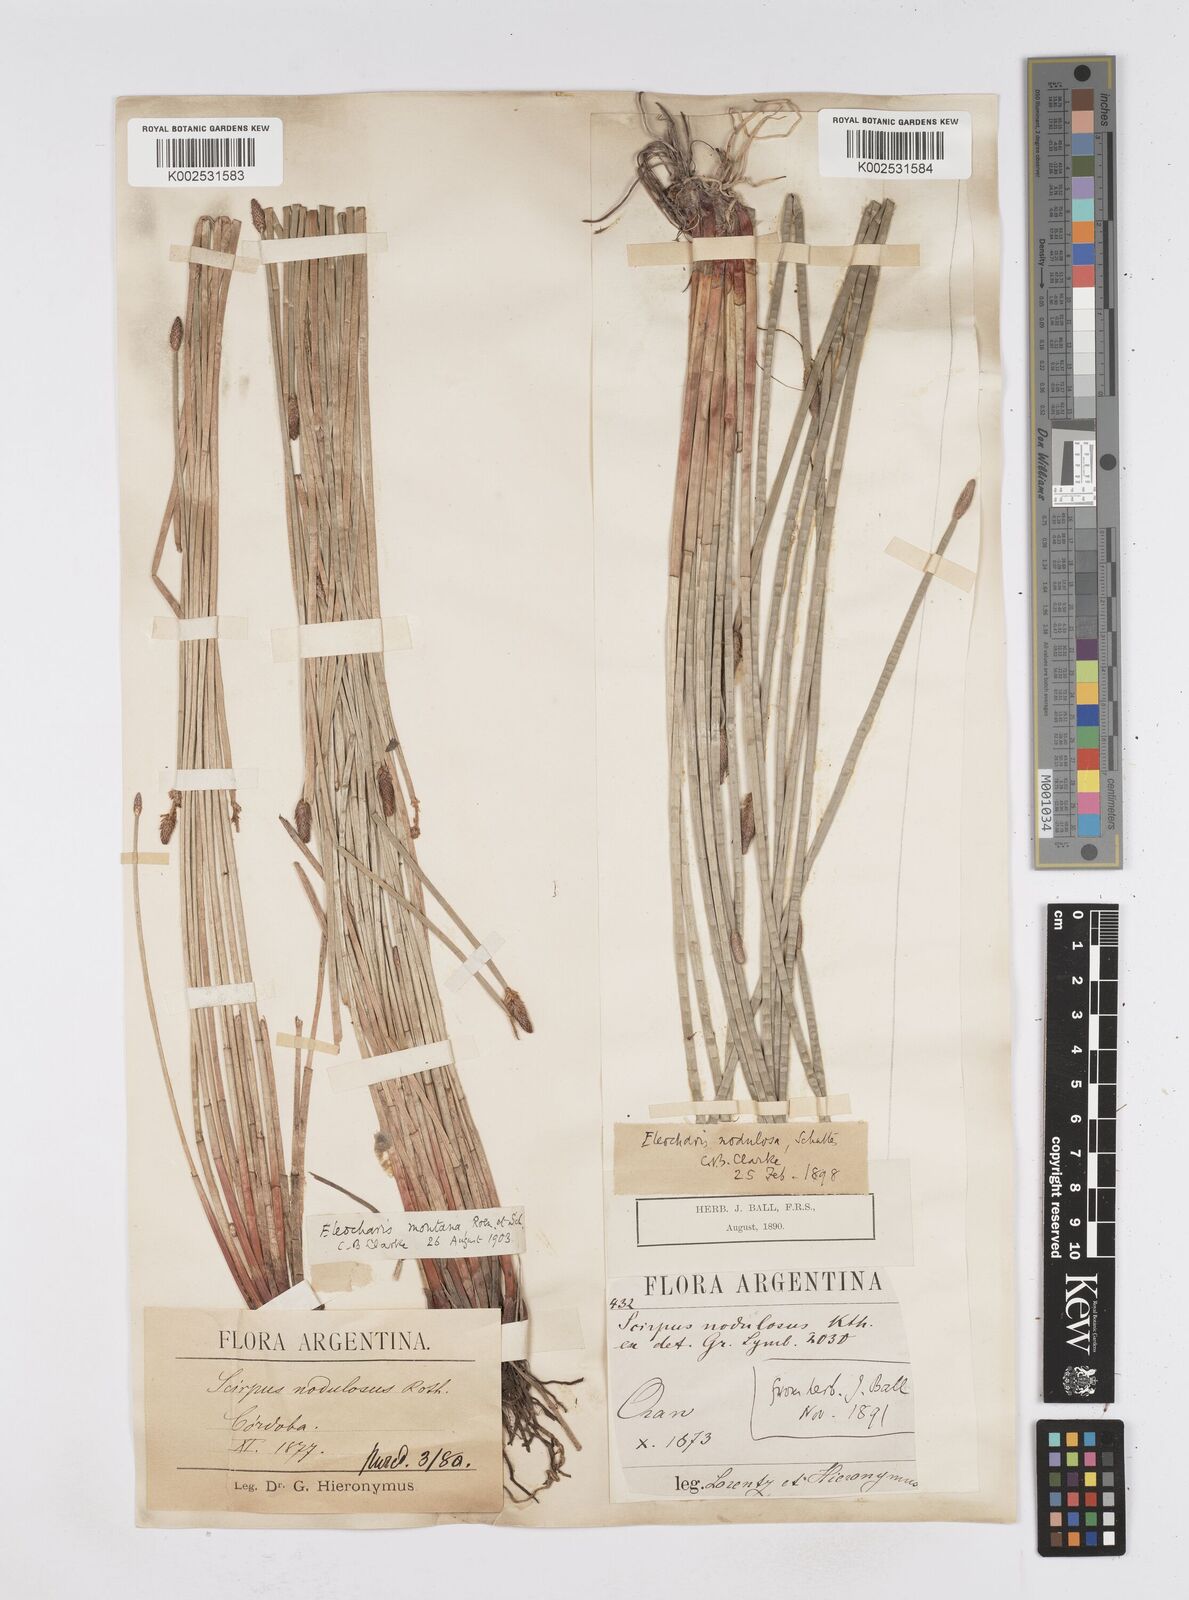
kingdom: Plantae
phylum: Tracheophyta
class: Liliopsida
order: Poales
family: Cyperaceae
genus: Eleocharis
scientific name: Eleocharis montana
